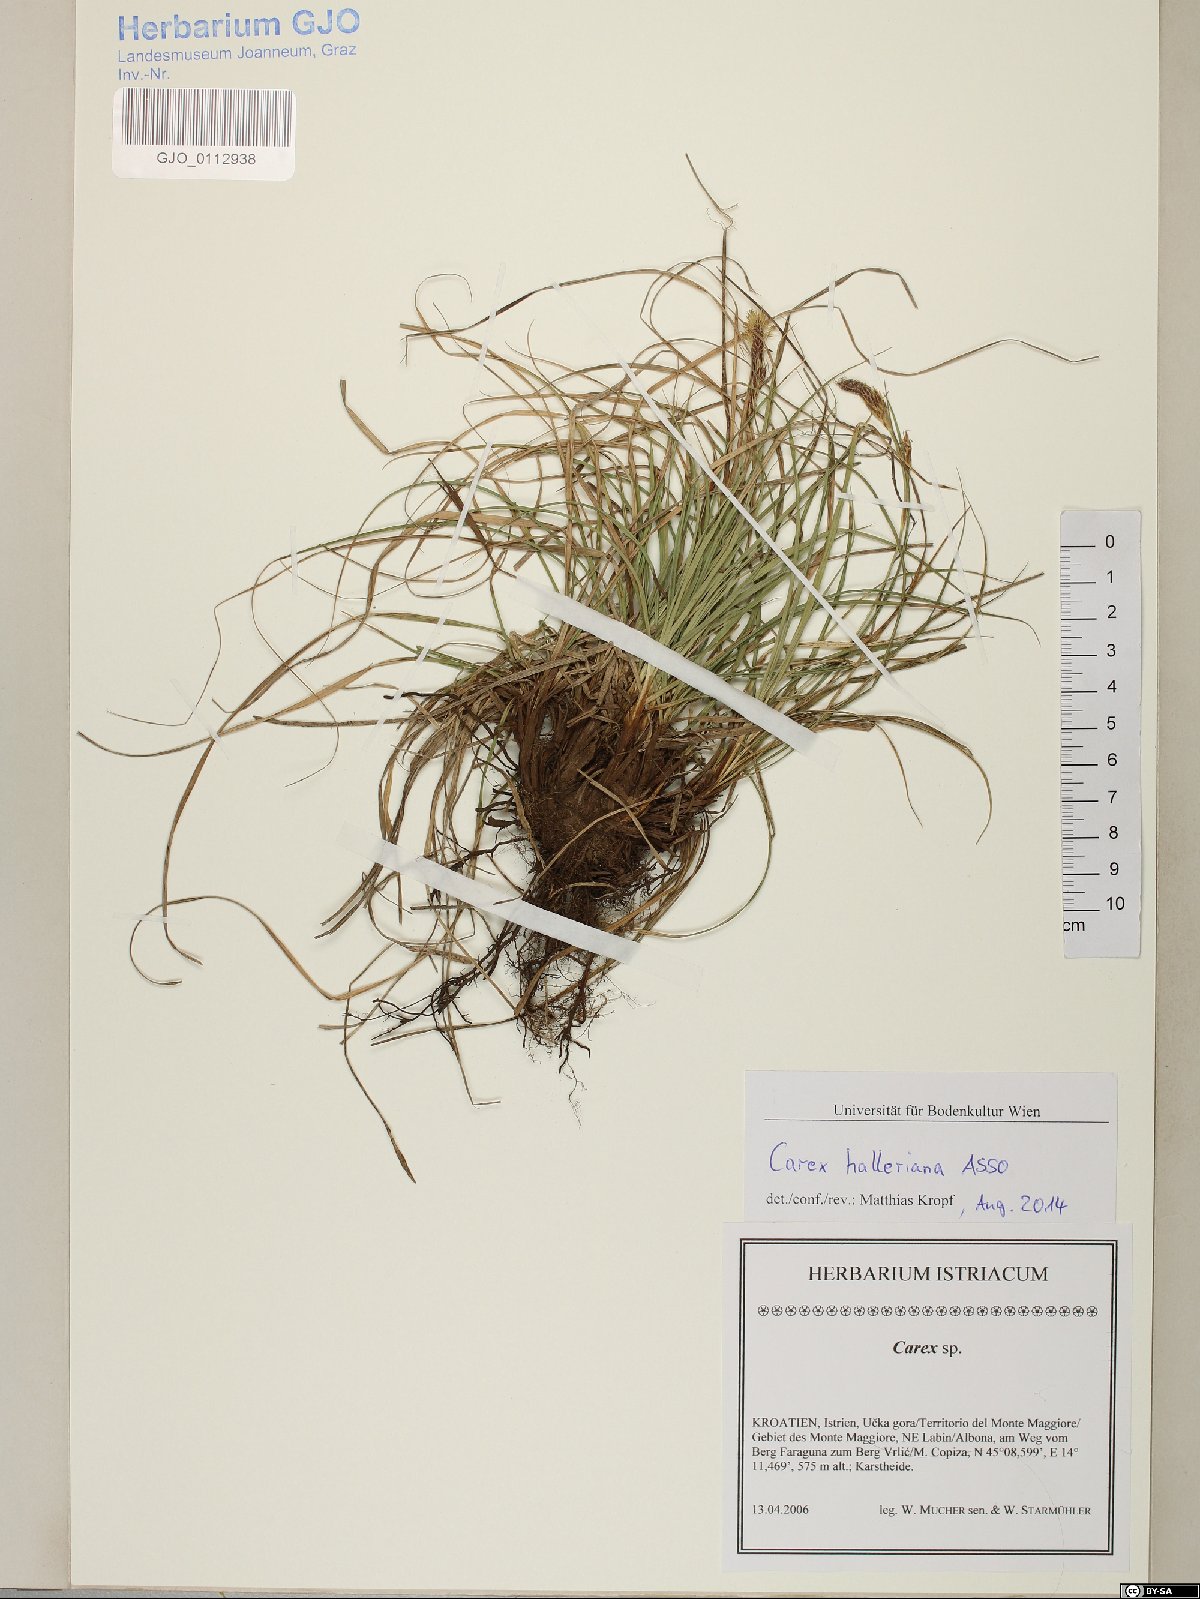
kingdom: Plantae
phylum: Tracheophyta
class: Liliopsida
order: Poales
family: Cyperaceae
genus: Carex
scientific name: Carex halleriana
